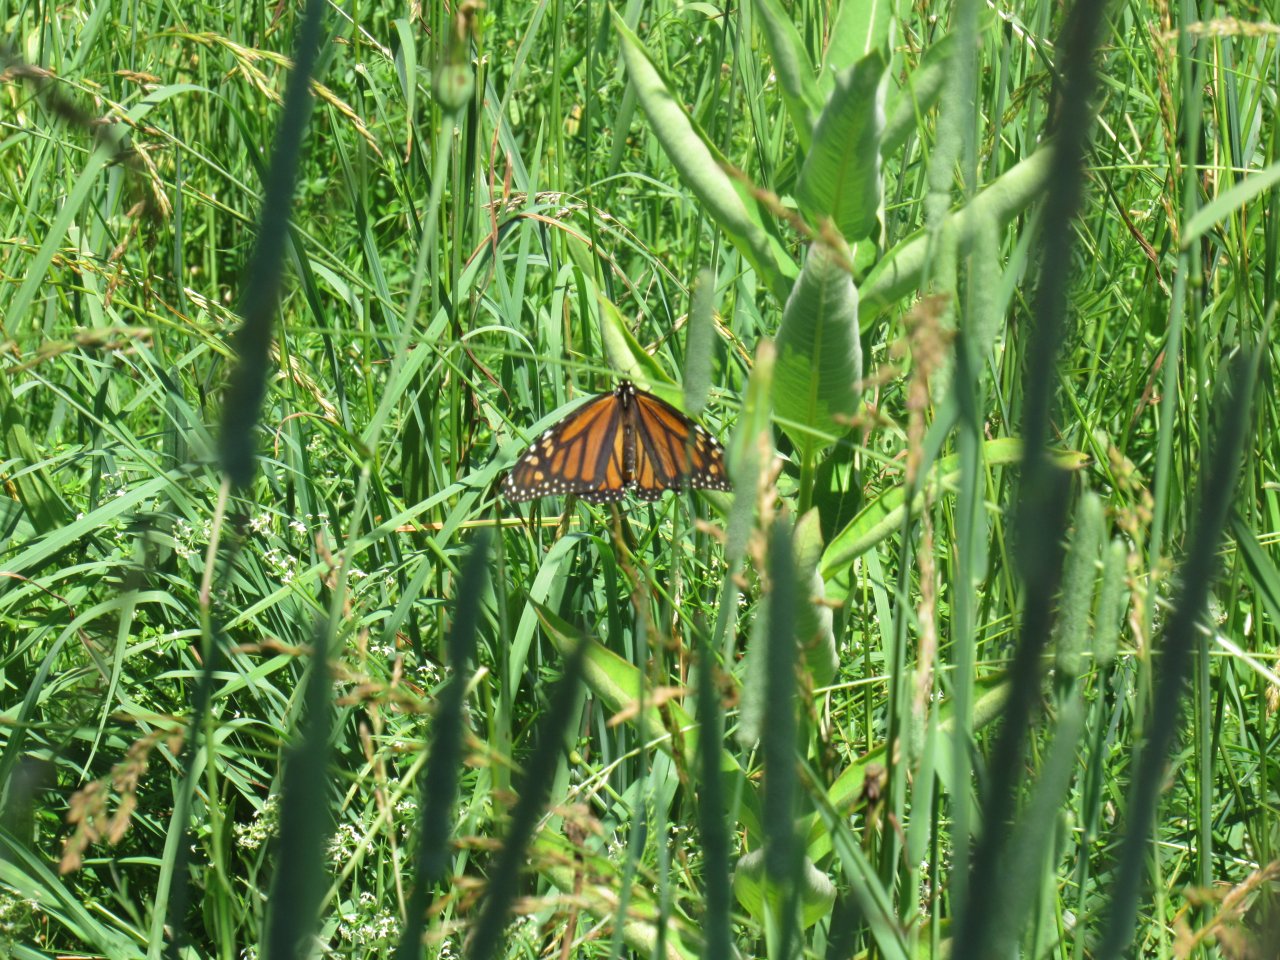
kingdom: Animalia
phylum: Arthropoda
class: Insecta
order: Lepidoptera
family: Nymphalidae
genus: Danaus
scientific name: Danaus plexippus
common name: Monarch
